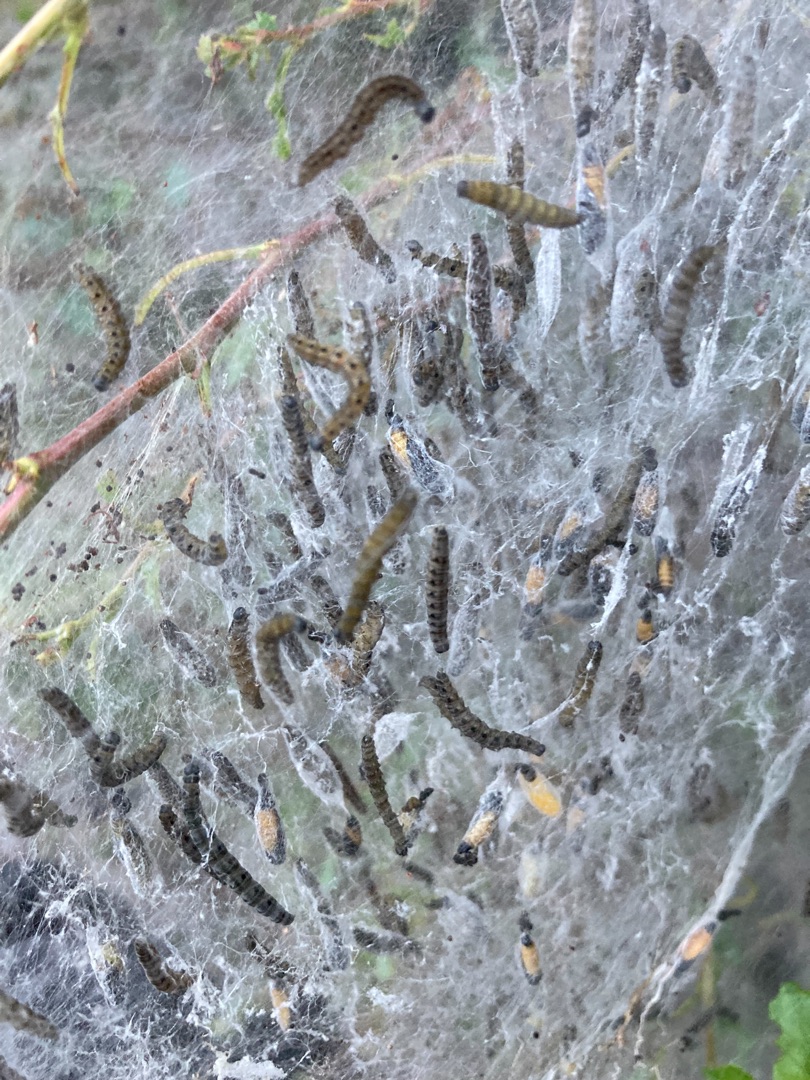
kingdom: Animalia
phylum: Arthropoda
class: Insecta
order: Lepidoptera
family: Nymphalidae
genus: Aglais
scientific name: Aglais urticae
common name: Nældens takvinge
